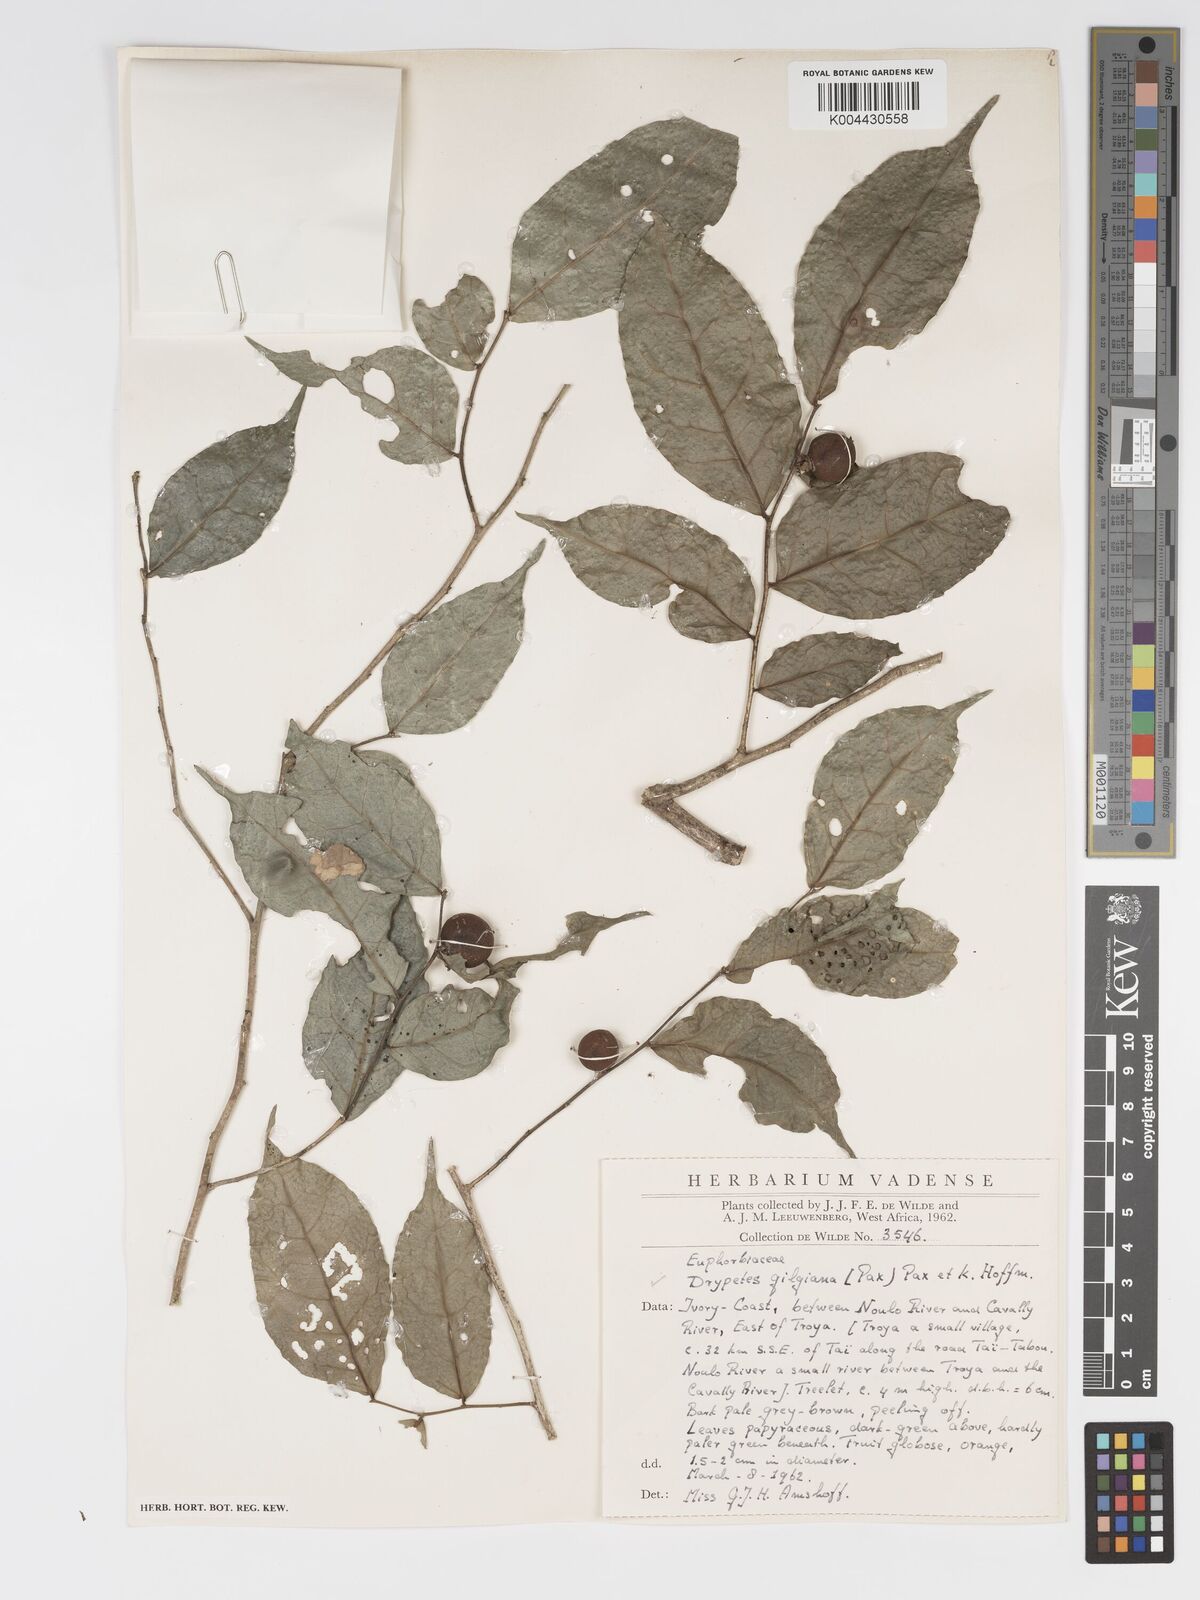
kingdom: Plantae
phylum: Tracheophyta
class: Magnoliopsida
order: Malpighiales
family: Putranjivaceae
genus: Drypetes
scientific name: Drypetes gilgiana
